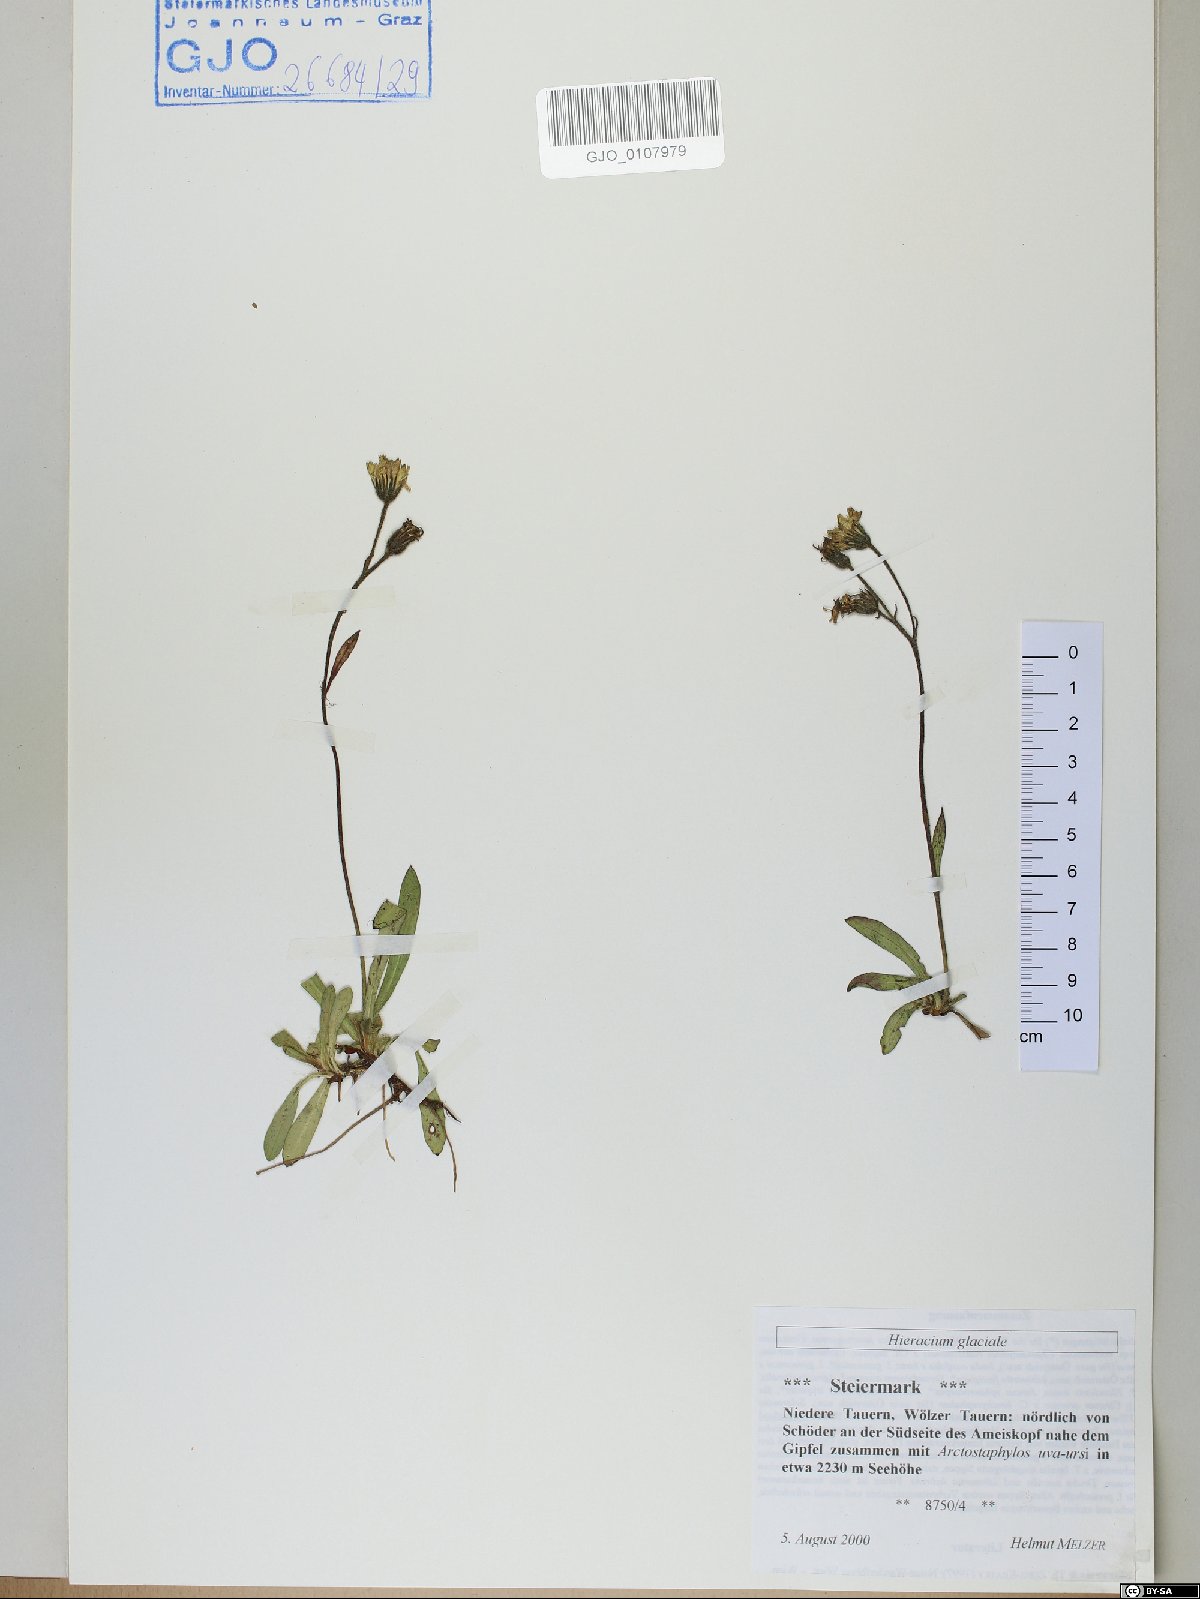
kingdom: Plantae
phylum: Tracheophyta
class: Magnoliopsida
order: Asterales
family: Asteraceae
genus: Pilosella
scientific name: Pilosella glacialis
